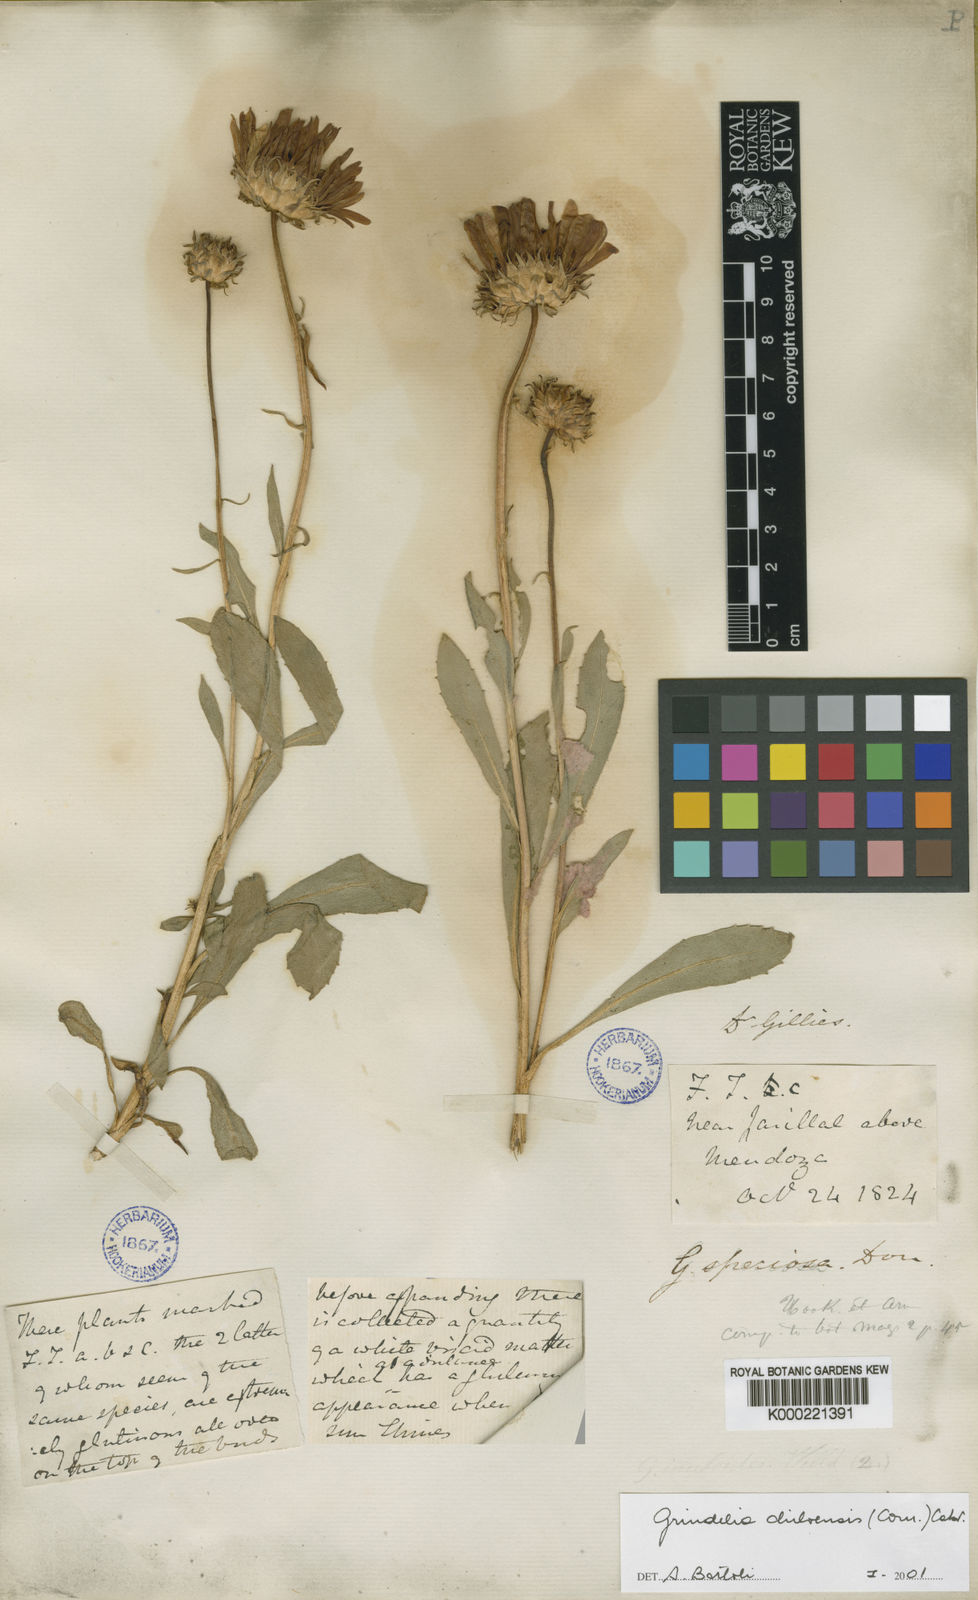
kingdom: Plantae
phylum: Tracheophyta
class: Magnoliopsida
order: Asterales
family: Asteraceae
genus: Grindelia
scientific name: Grindelia chiloensis
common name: Shrubby gumweed
